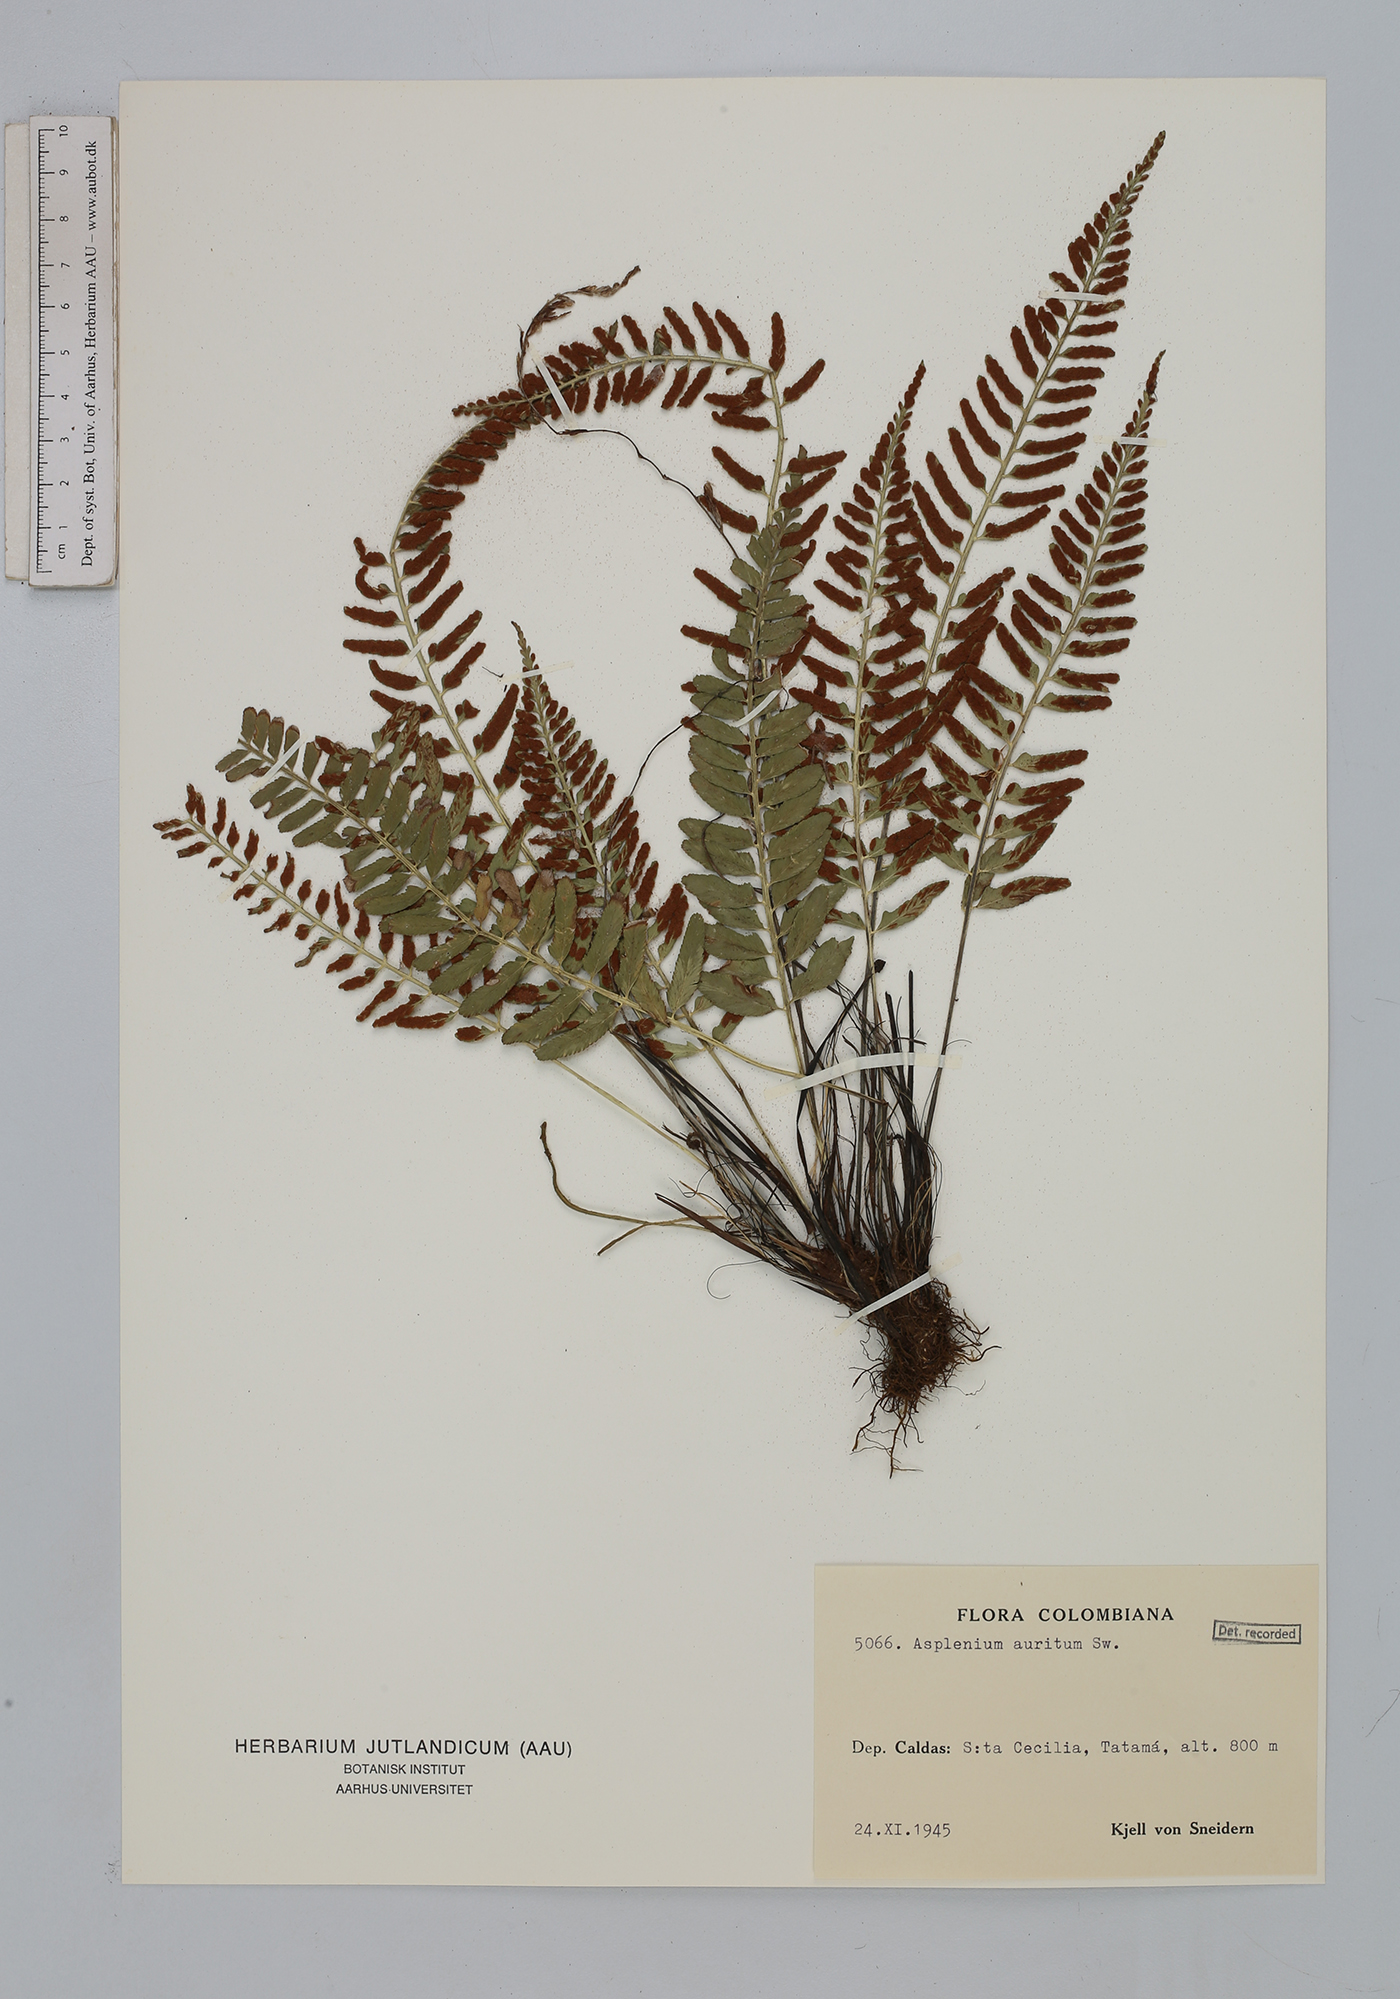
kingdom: Plantae
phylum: Tracheophyta
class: Polypodiopsida
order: Polypodiales
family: Aspleniaceae
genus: Asplenium
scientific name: Asplenium auritum
